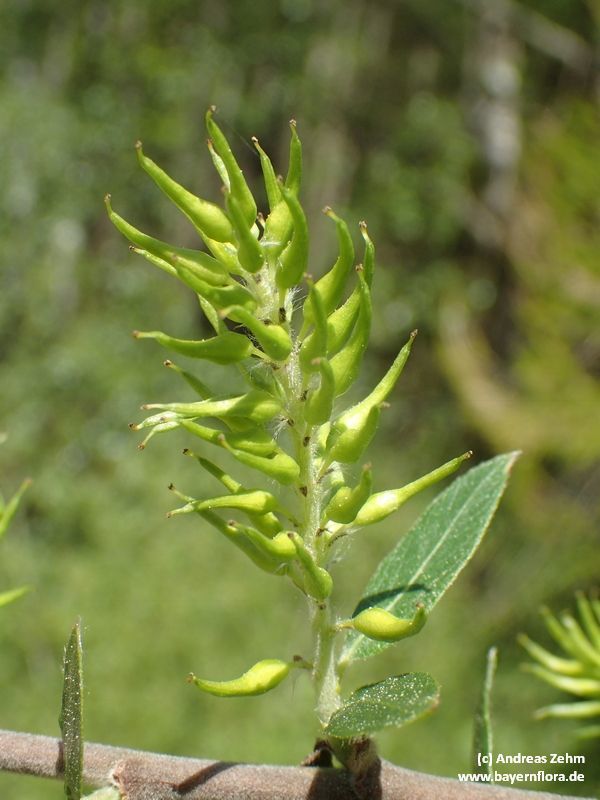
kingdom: Plantae
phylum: Tracheophyta
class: Magnoliopsida
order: Malpighiales
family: Salicaceae
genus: Salix
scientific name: Salix myrsinifolia
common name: Dark-leaved willow
